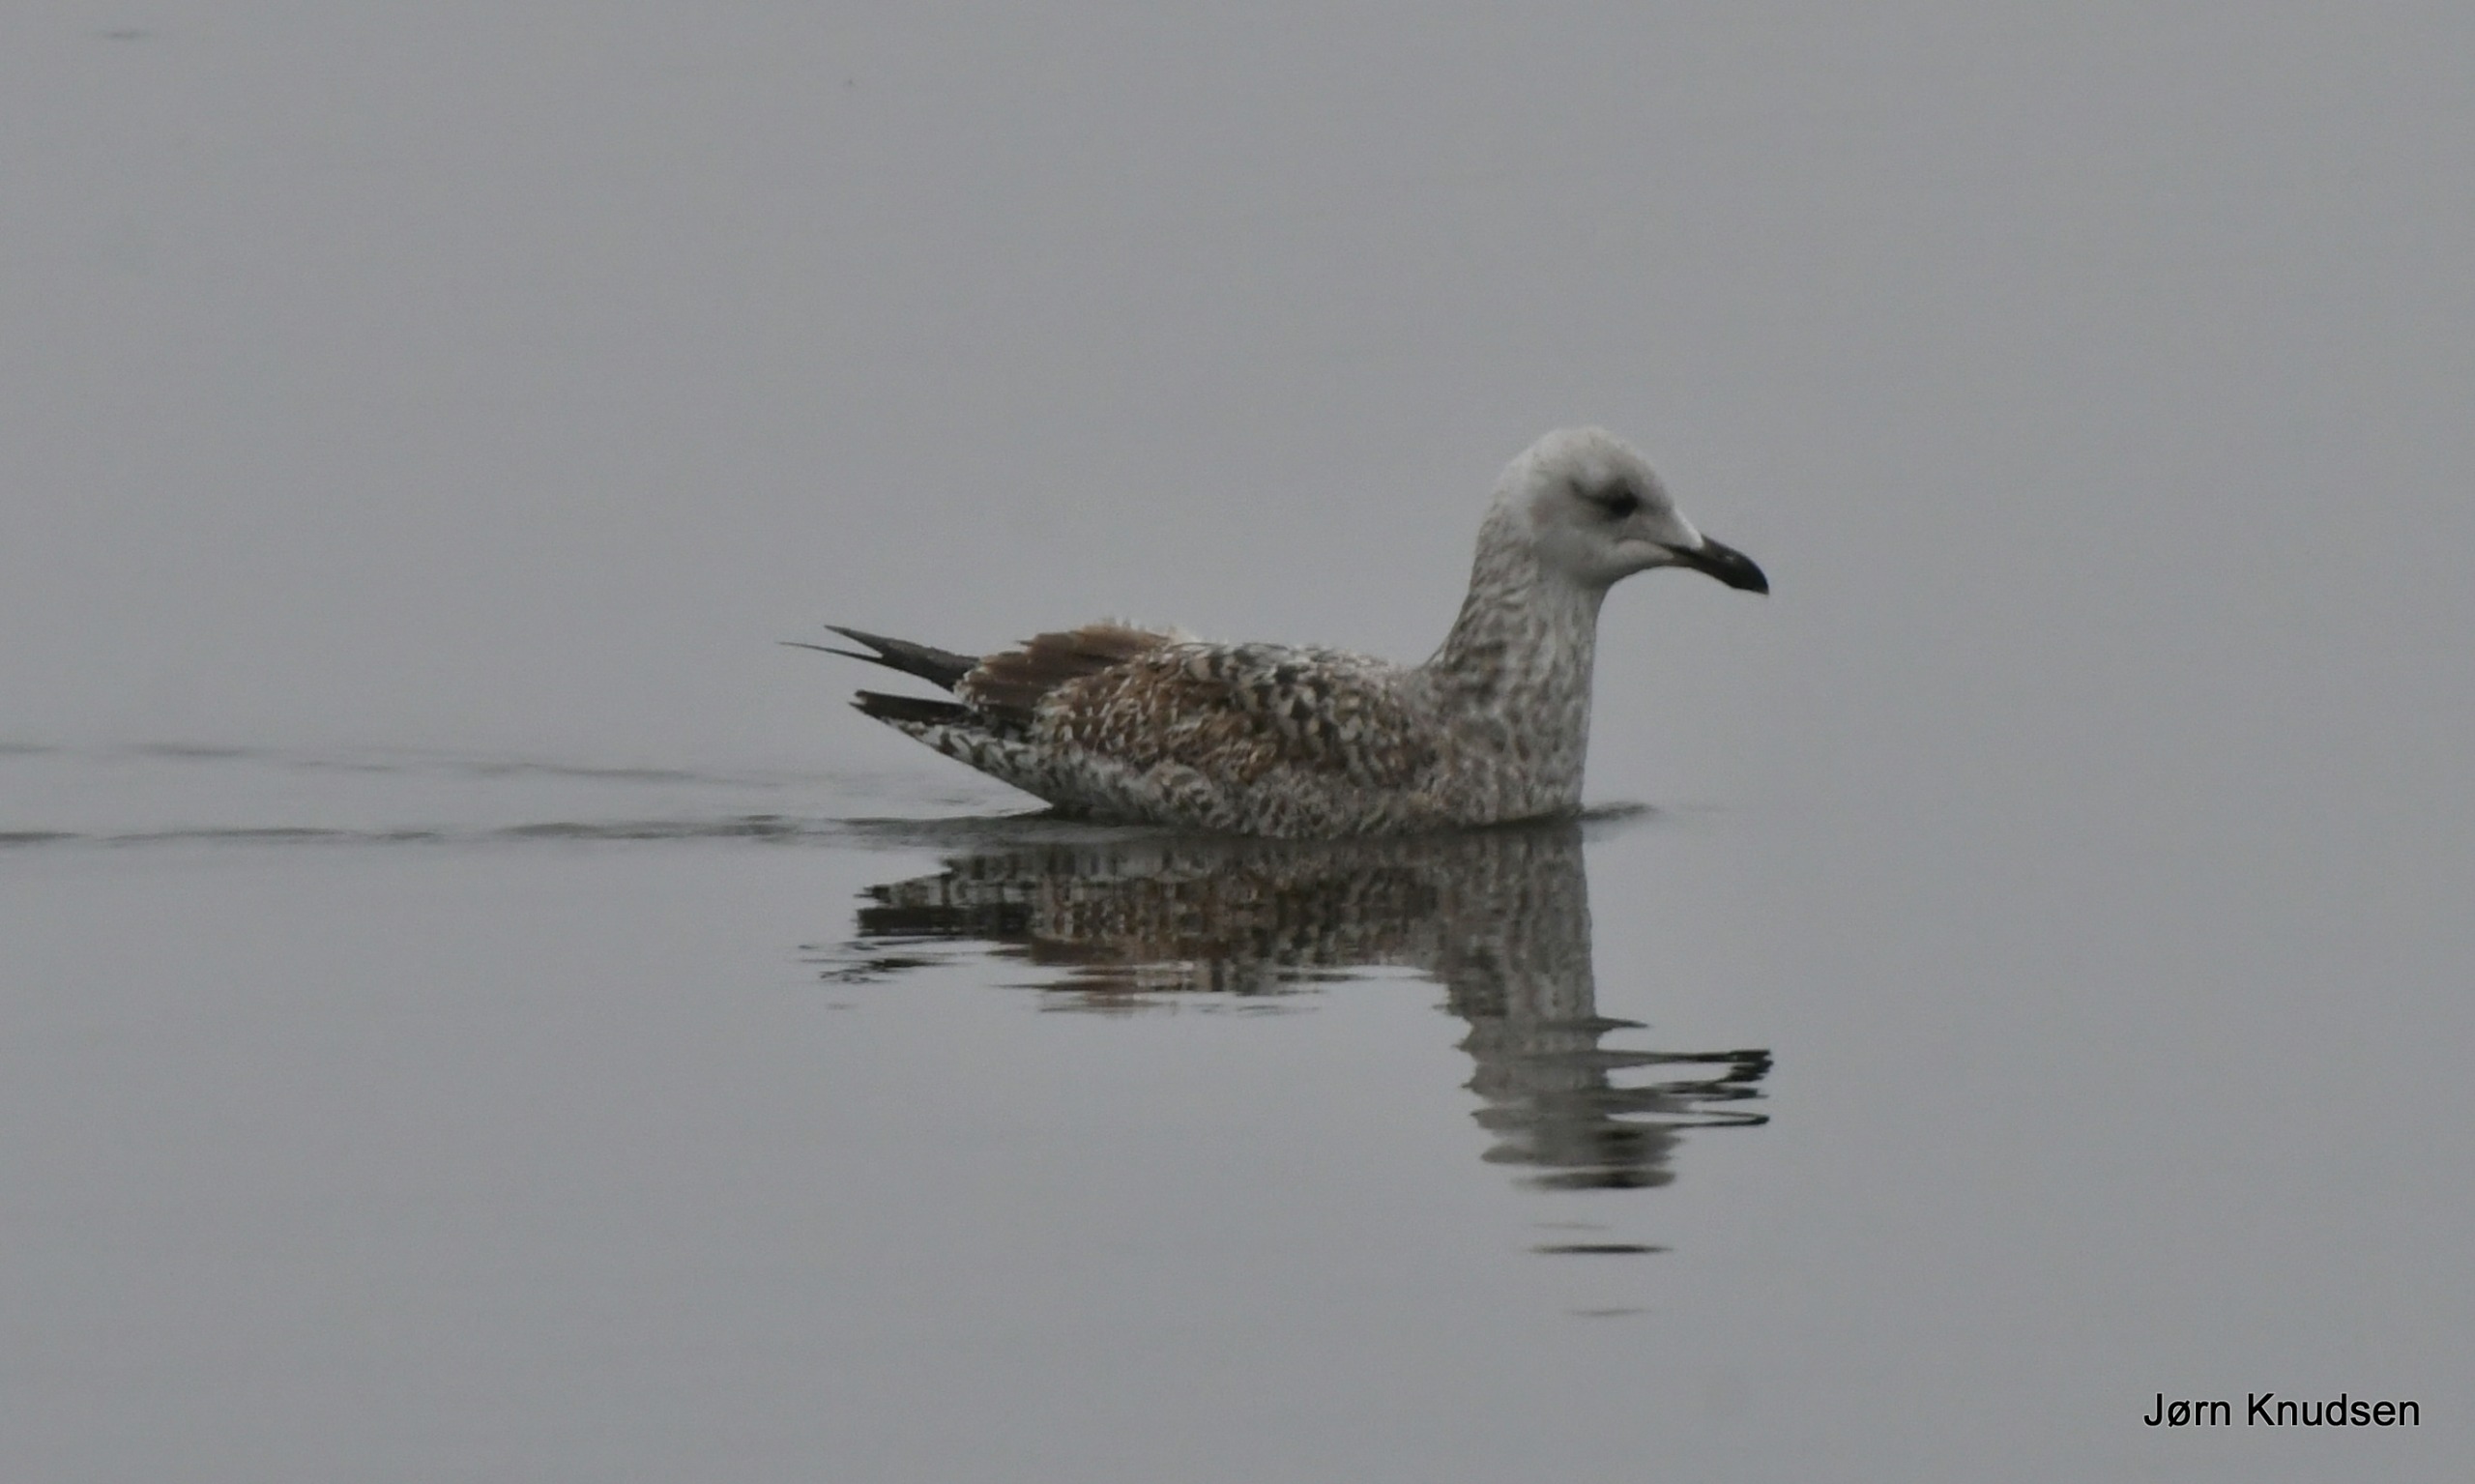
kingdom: Animalia
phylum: Chordata
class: Aves
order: Charadriiformes
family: Laridae
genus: Larus
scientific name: Larus argentatus
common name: Sølvmåge
